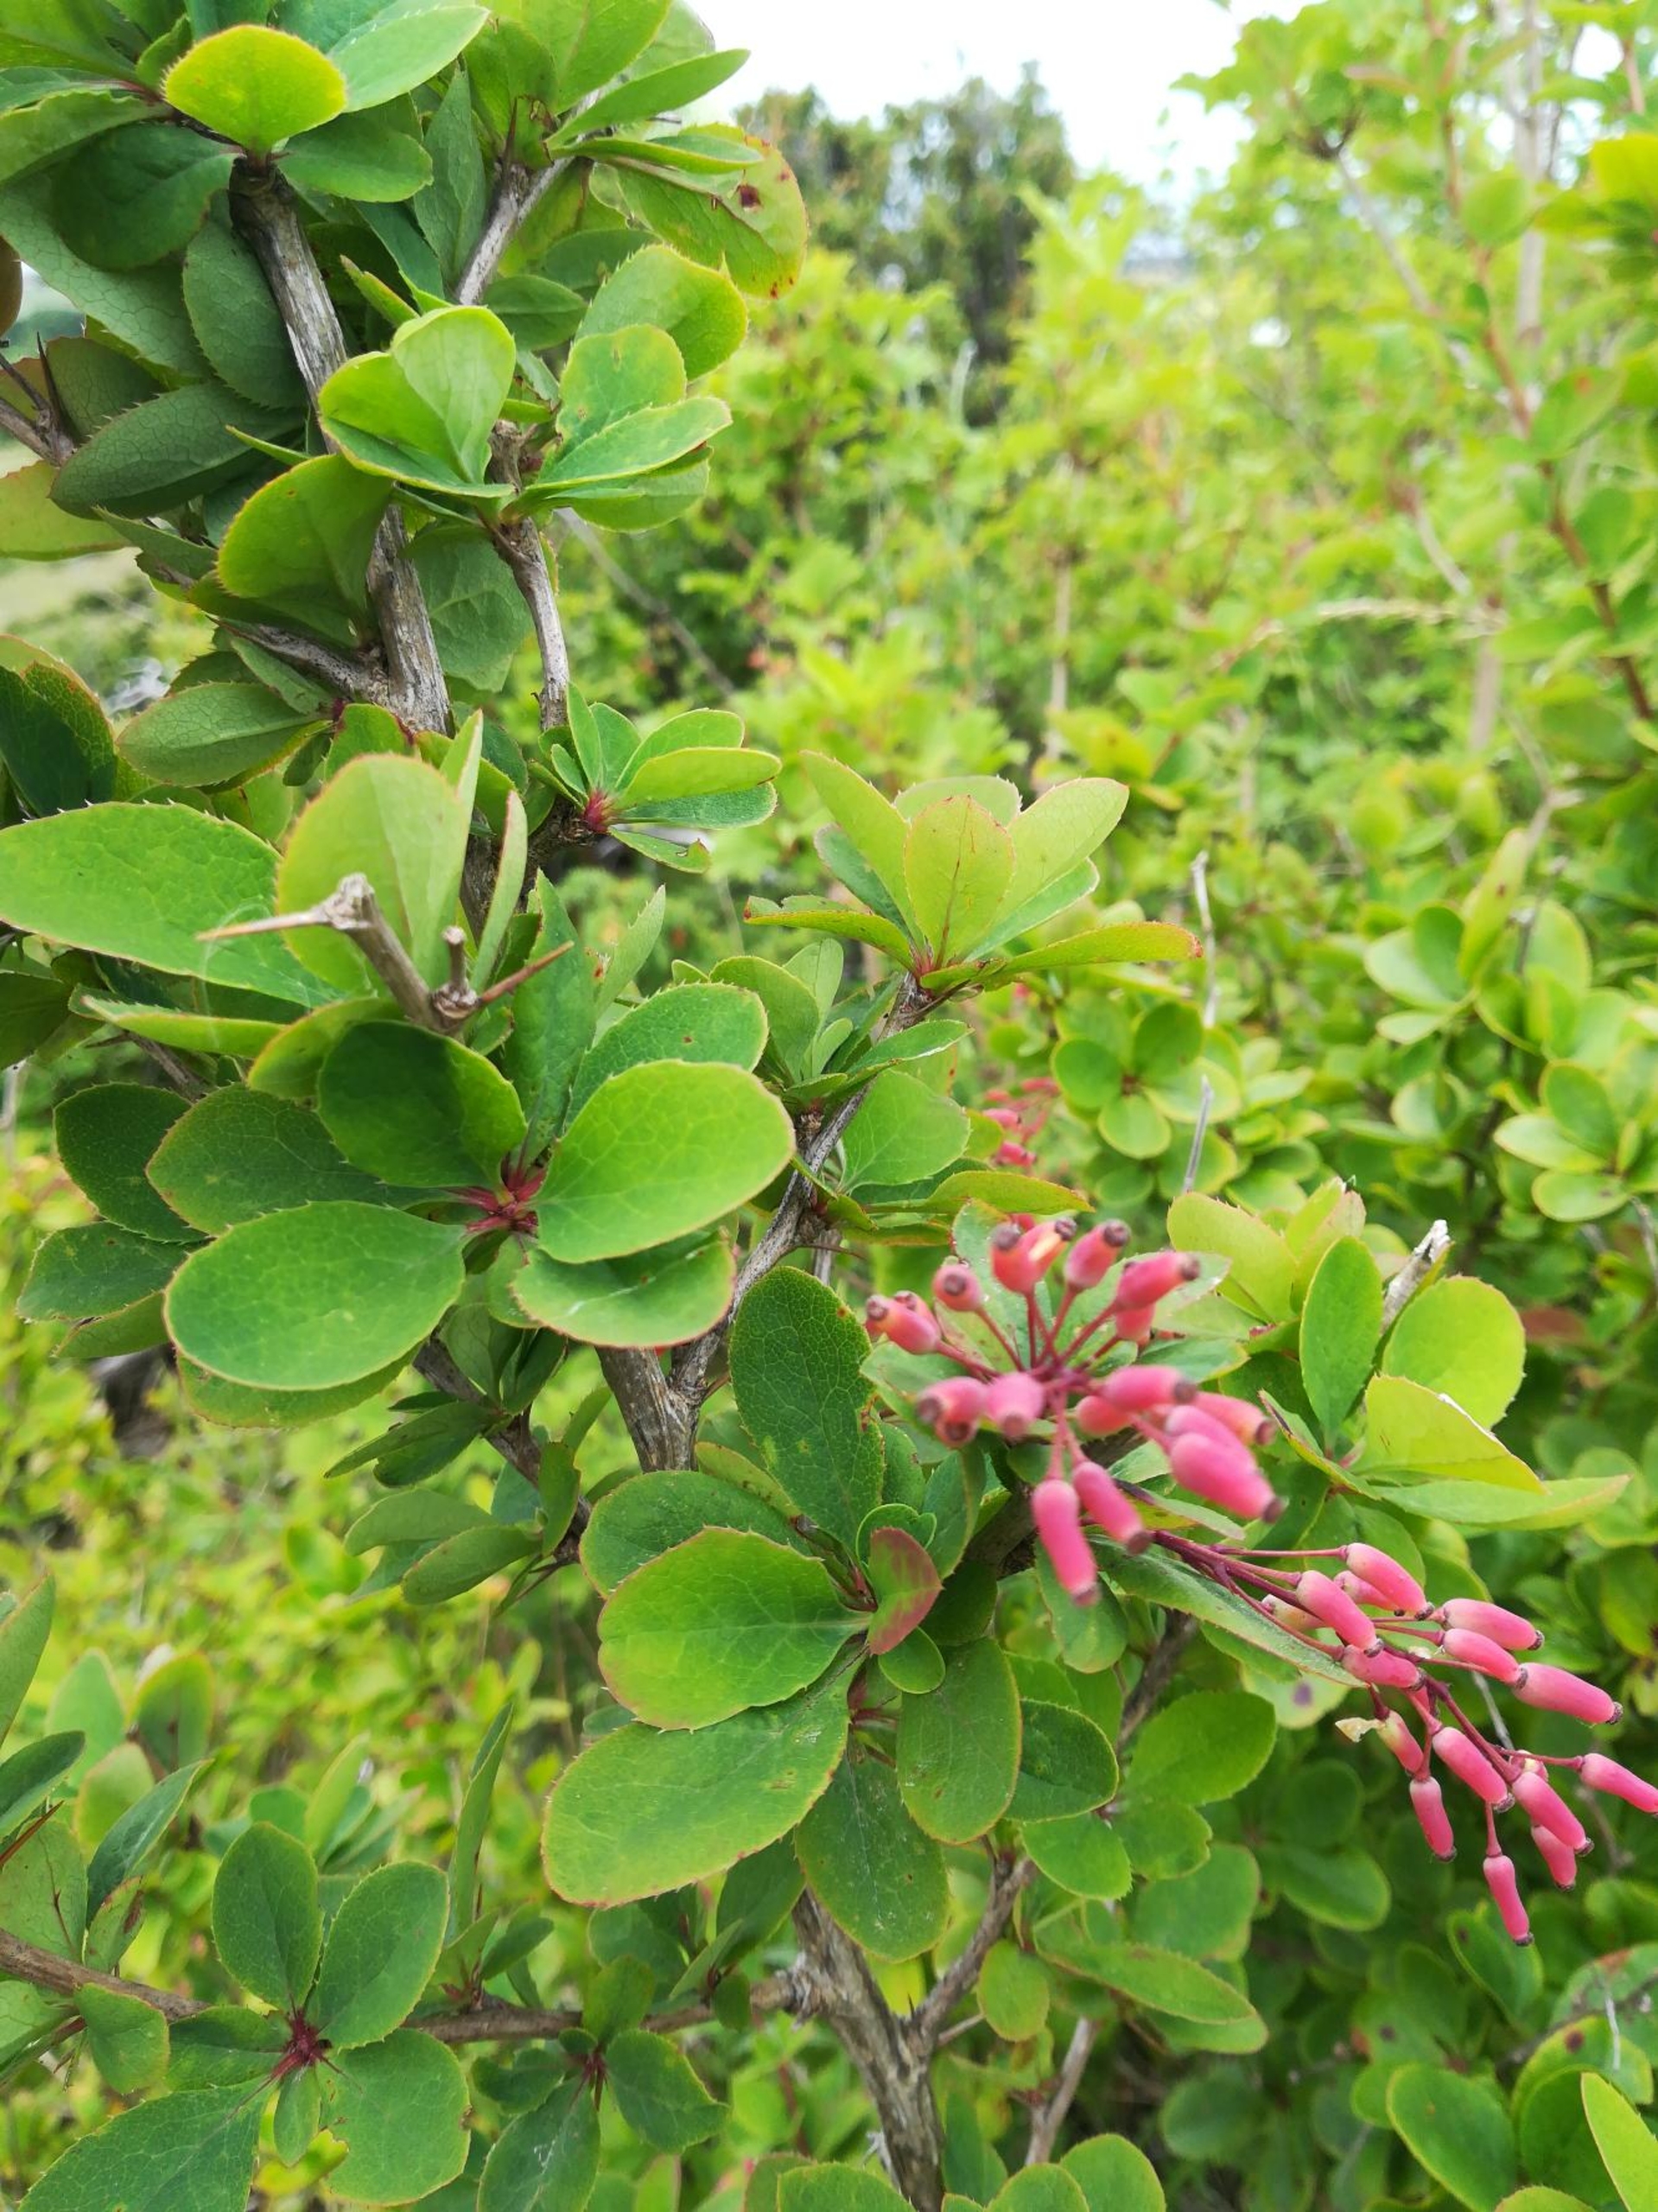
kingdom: Plantae
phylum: Tracheophyta
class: Magnoliopsida
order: Ranunculales
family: Berberidaceae
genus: Berberis
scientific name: Berberis vulgaris
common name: Almindelig berberis
